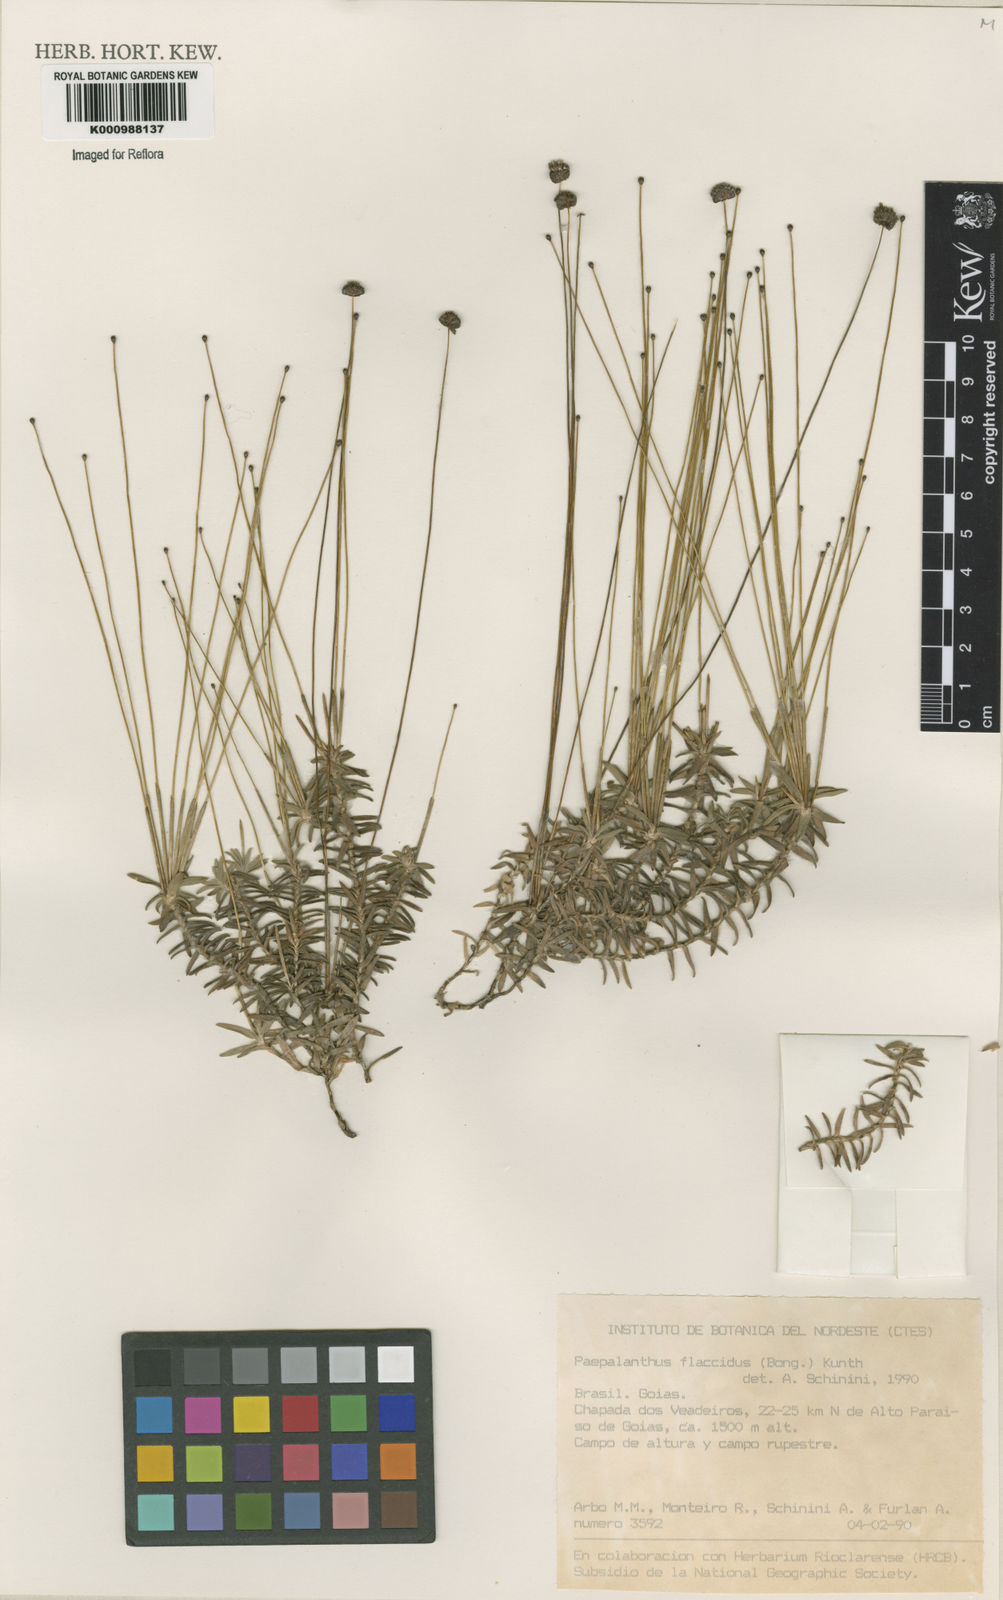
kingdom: Plantae
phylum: Tracheophyta
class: Liliopsida
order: Poales
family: Eriocaulaceae
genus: Paepalanthus
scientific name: Paepalanthus flaccidus
